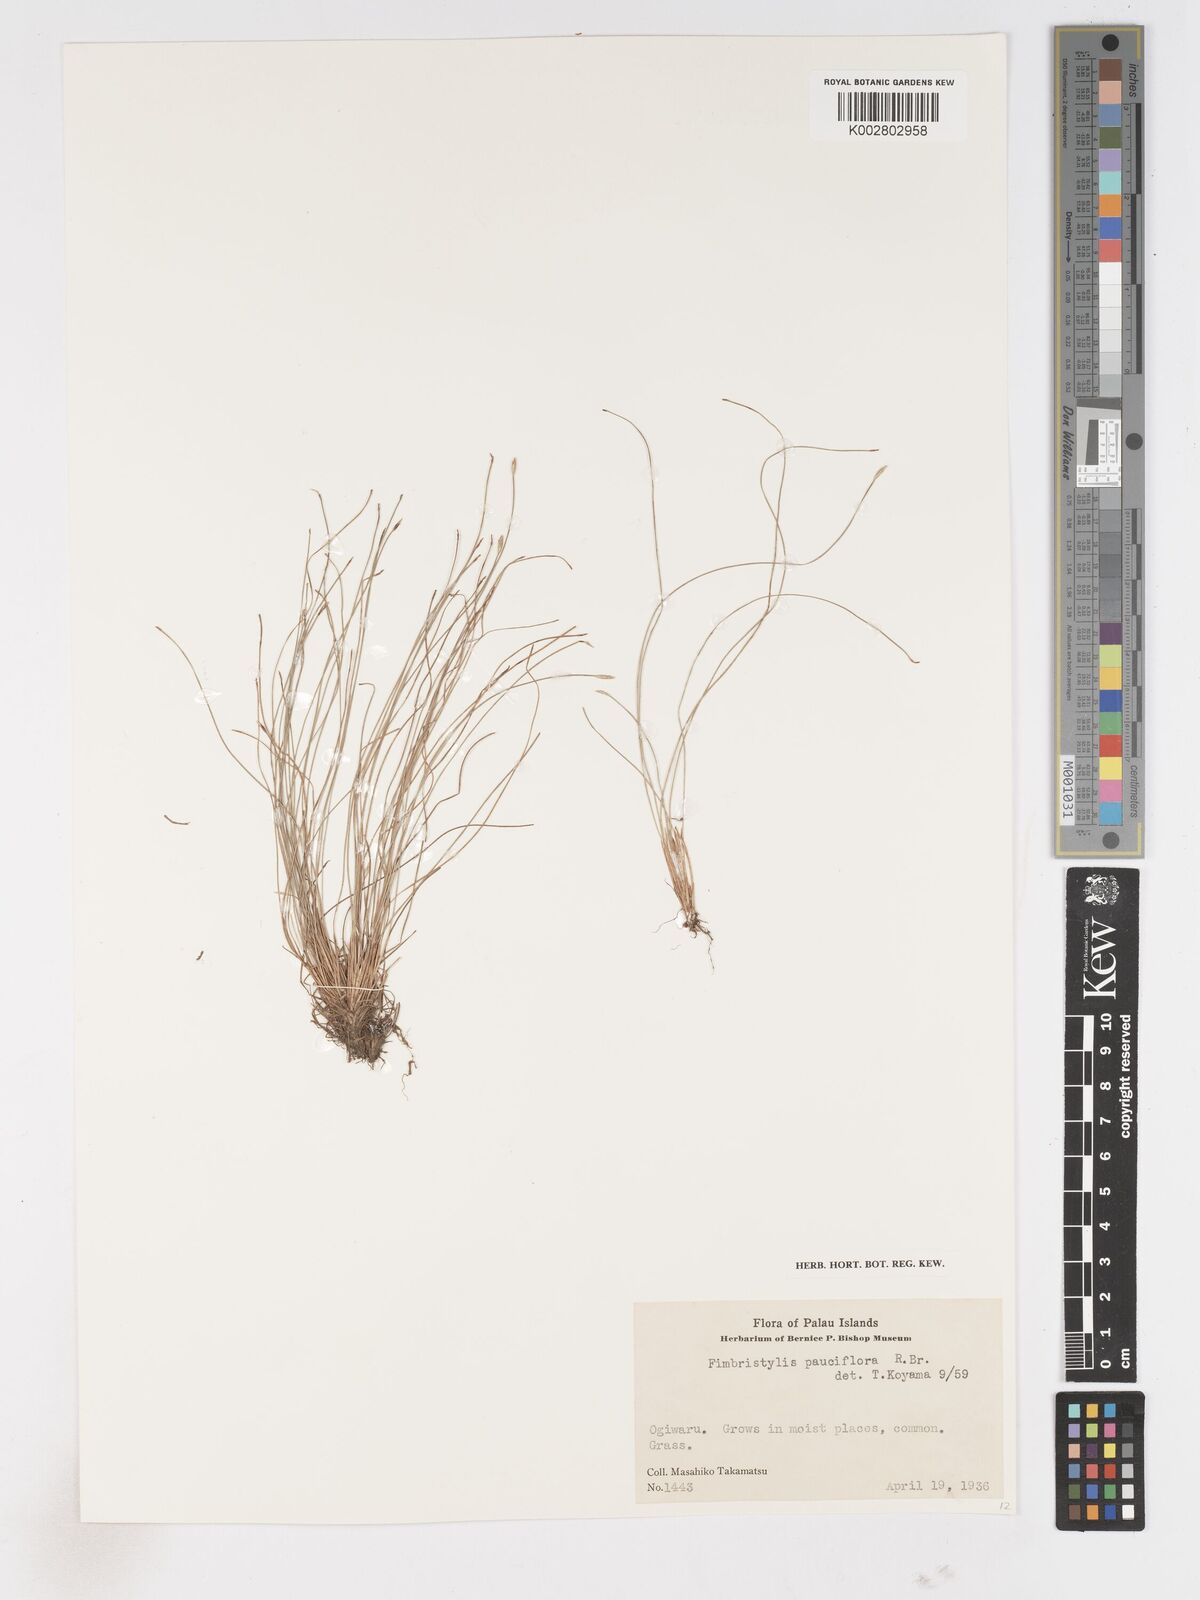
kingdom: Plantae
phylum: Tracheophyta
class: Liliopsida
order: Poales
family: Cyperaceae
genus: Fimbristylis
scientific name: Fimbristylis pauciflora
